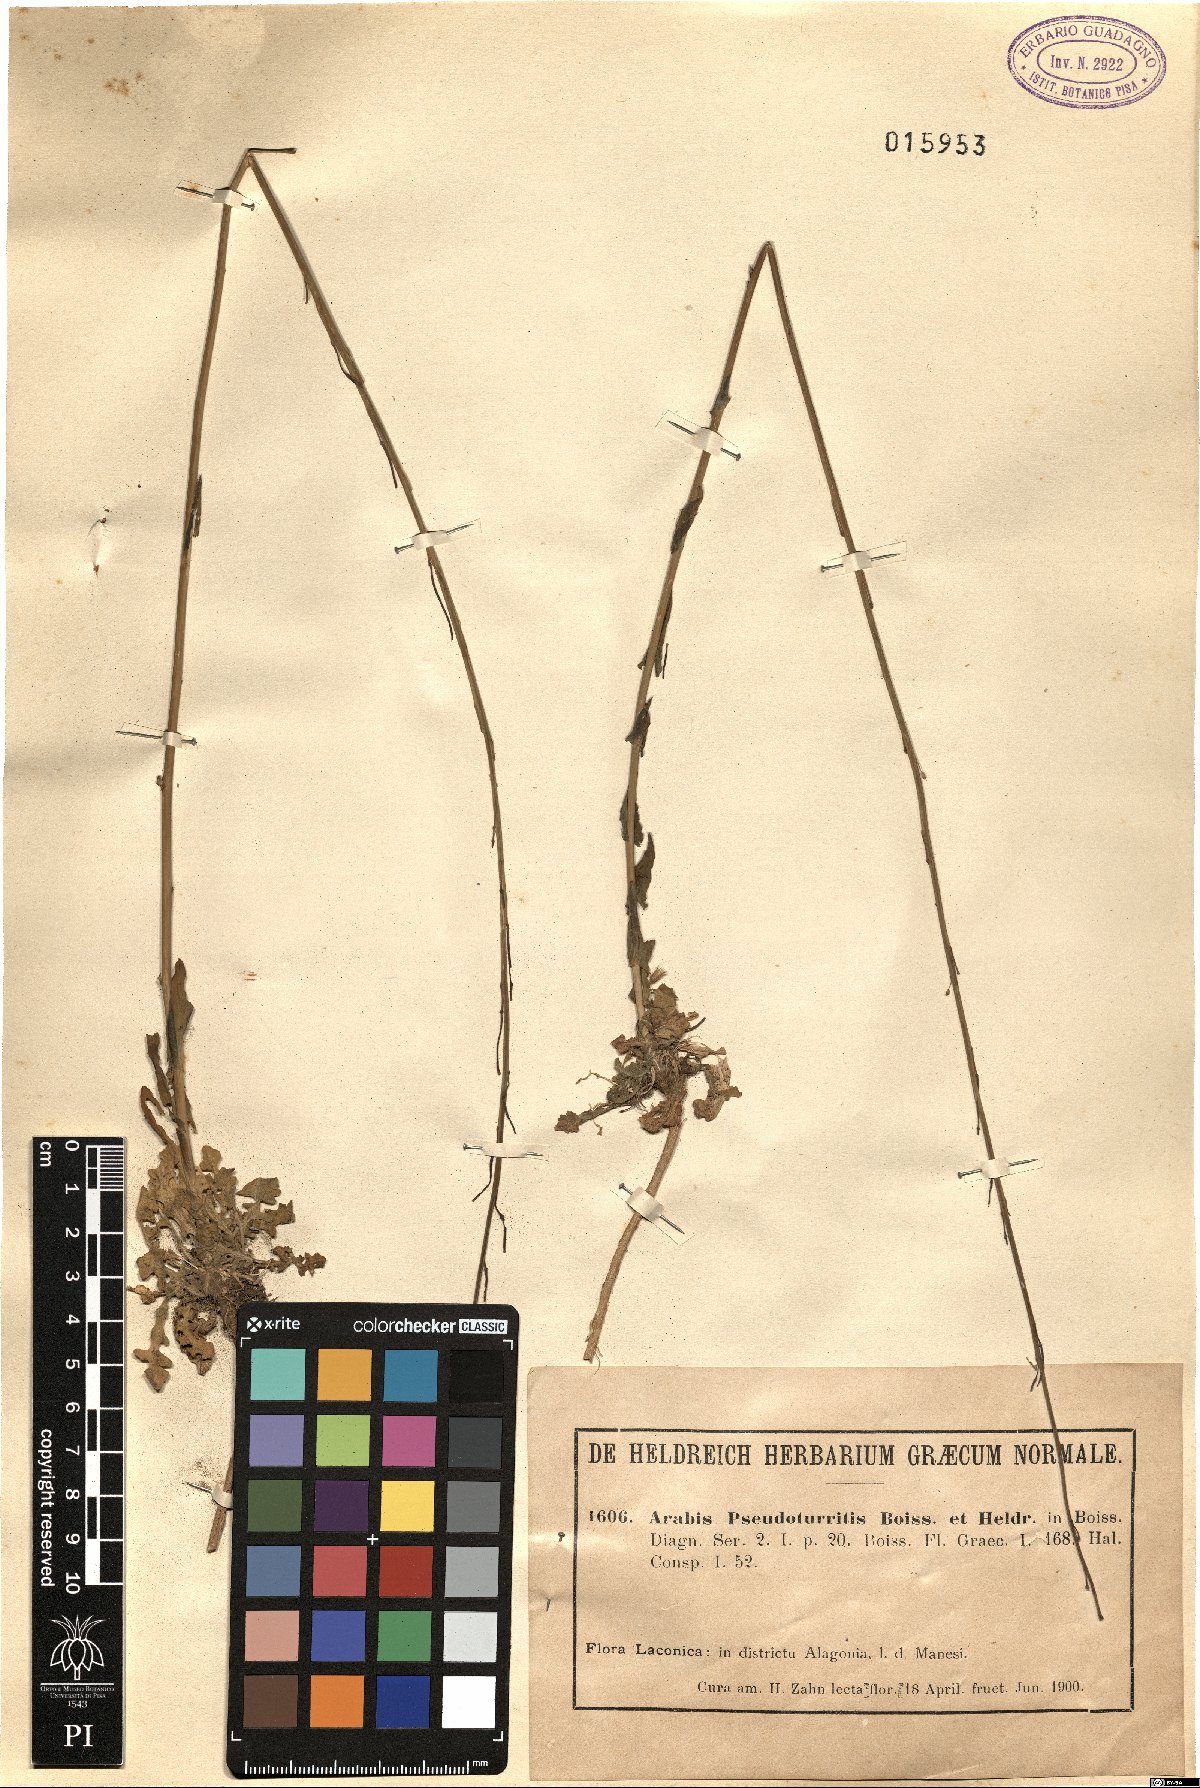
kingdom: Plantae
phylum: Tracheophyta
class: Magnoliopsida
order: Brassicales
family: Brassicaceae
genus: Turritis
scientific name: Turritis glabra
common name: Tower rockcress
